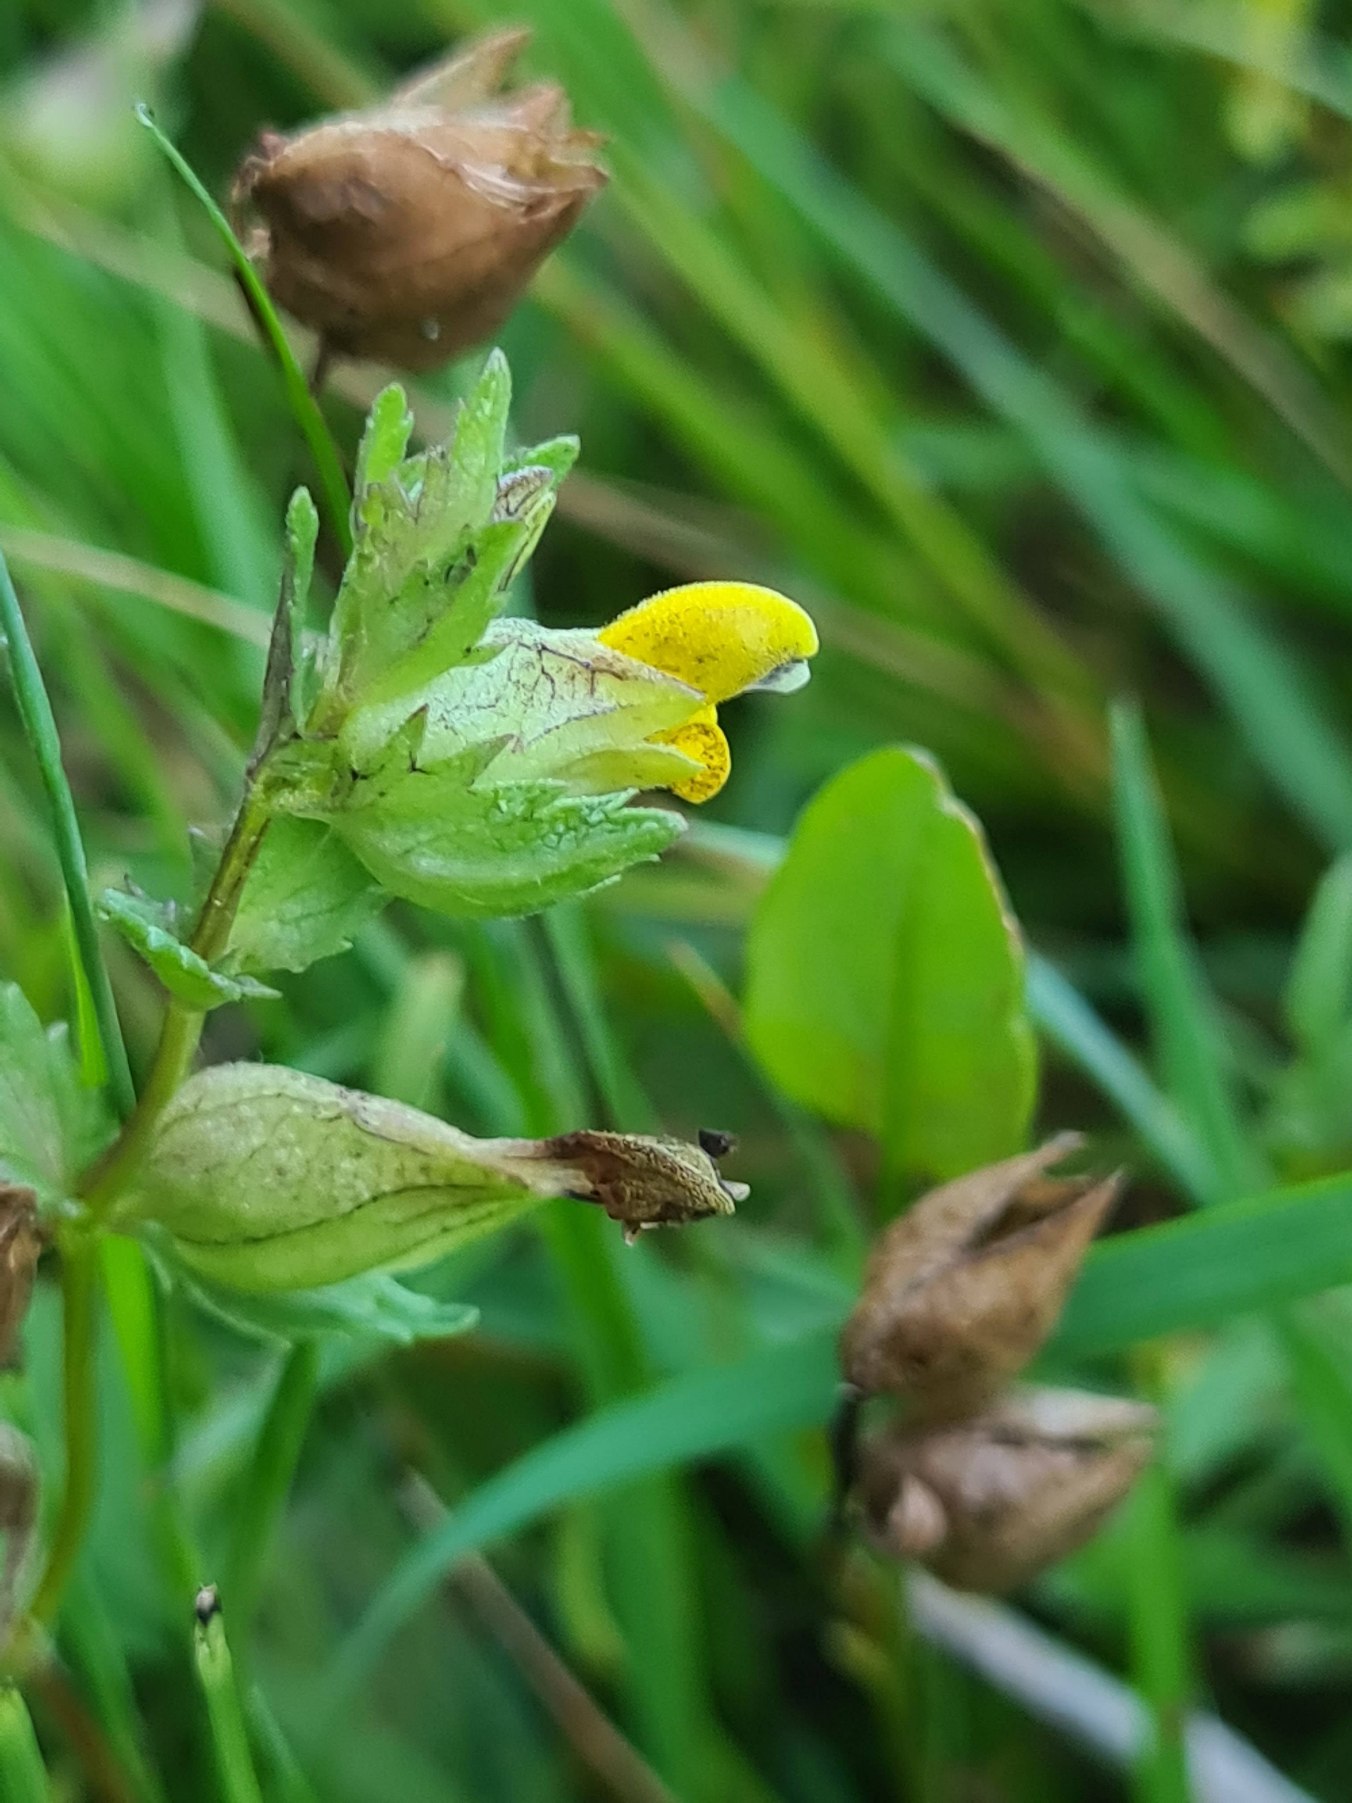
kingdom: Plantae
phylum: Tracheophyta
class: Magnoliopsida
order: Lamiales
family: Orobanchaceae
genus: Rhinanthus
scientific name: Rhinanthus minor
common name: Liden skjaller
